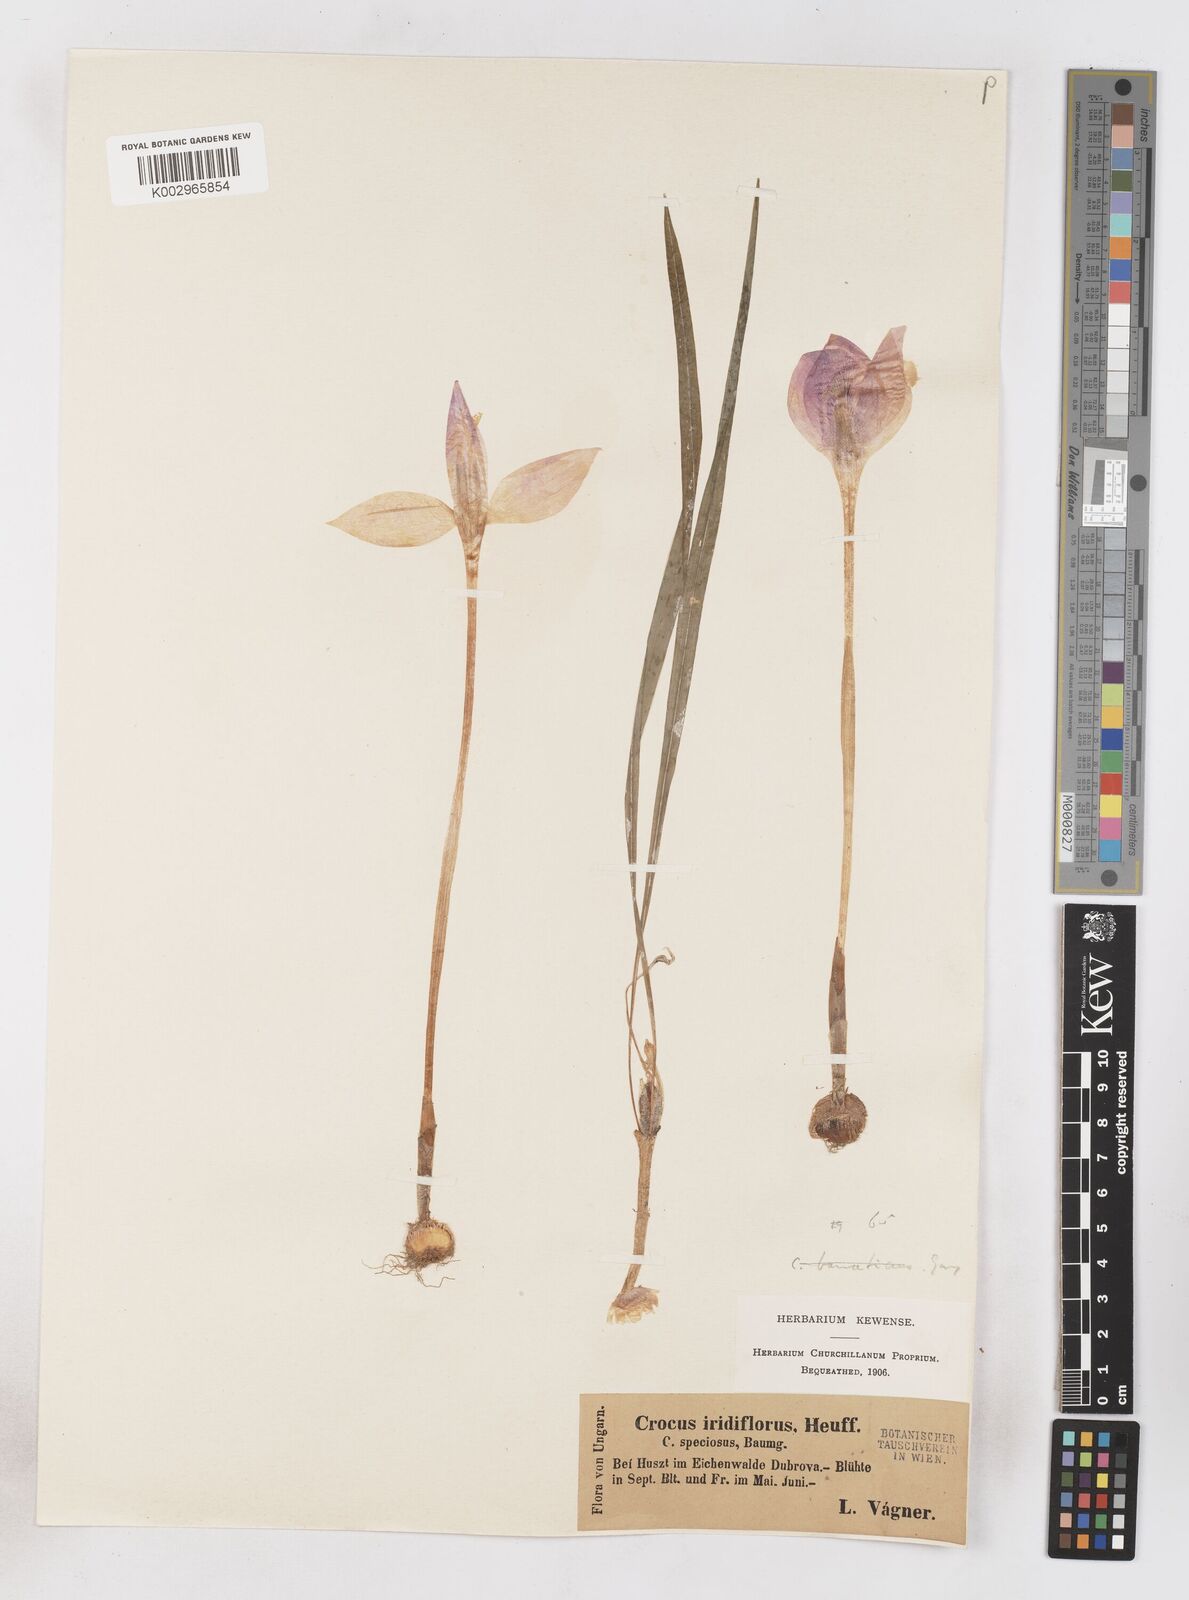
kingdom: Plantae
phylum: Tracheophyta
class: Liliopsida
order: Asparagales
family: Iridaceae
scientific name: Iridaceae
